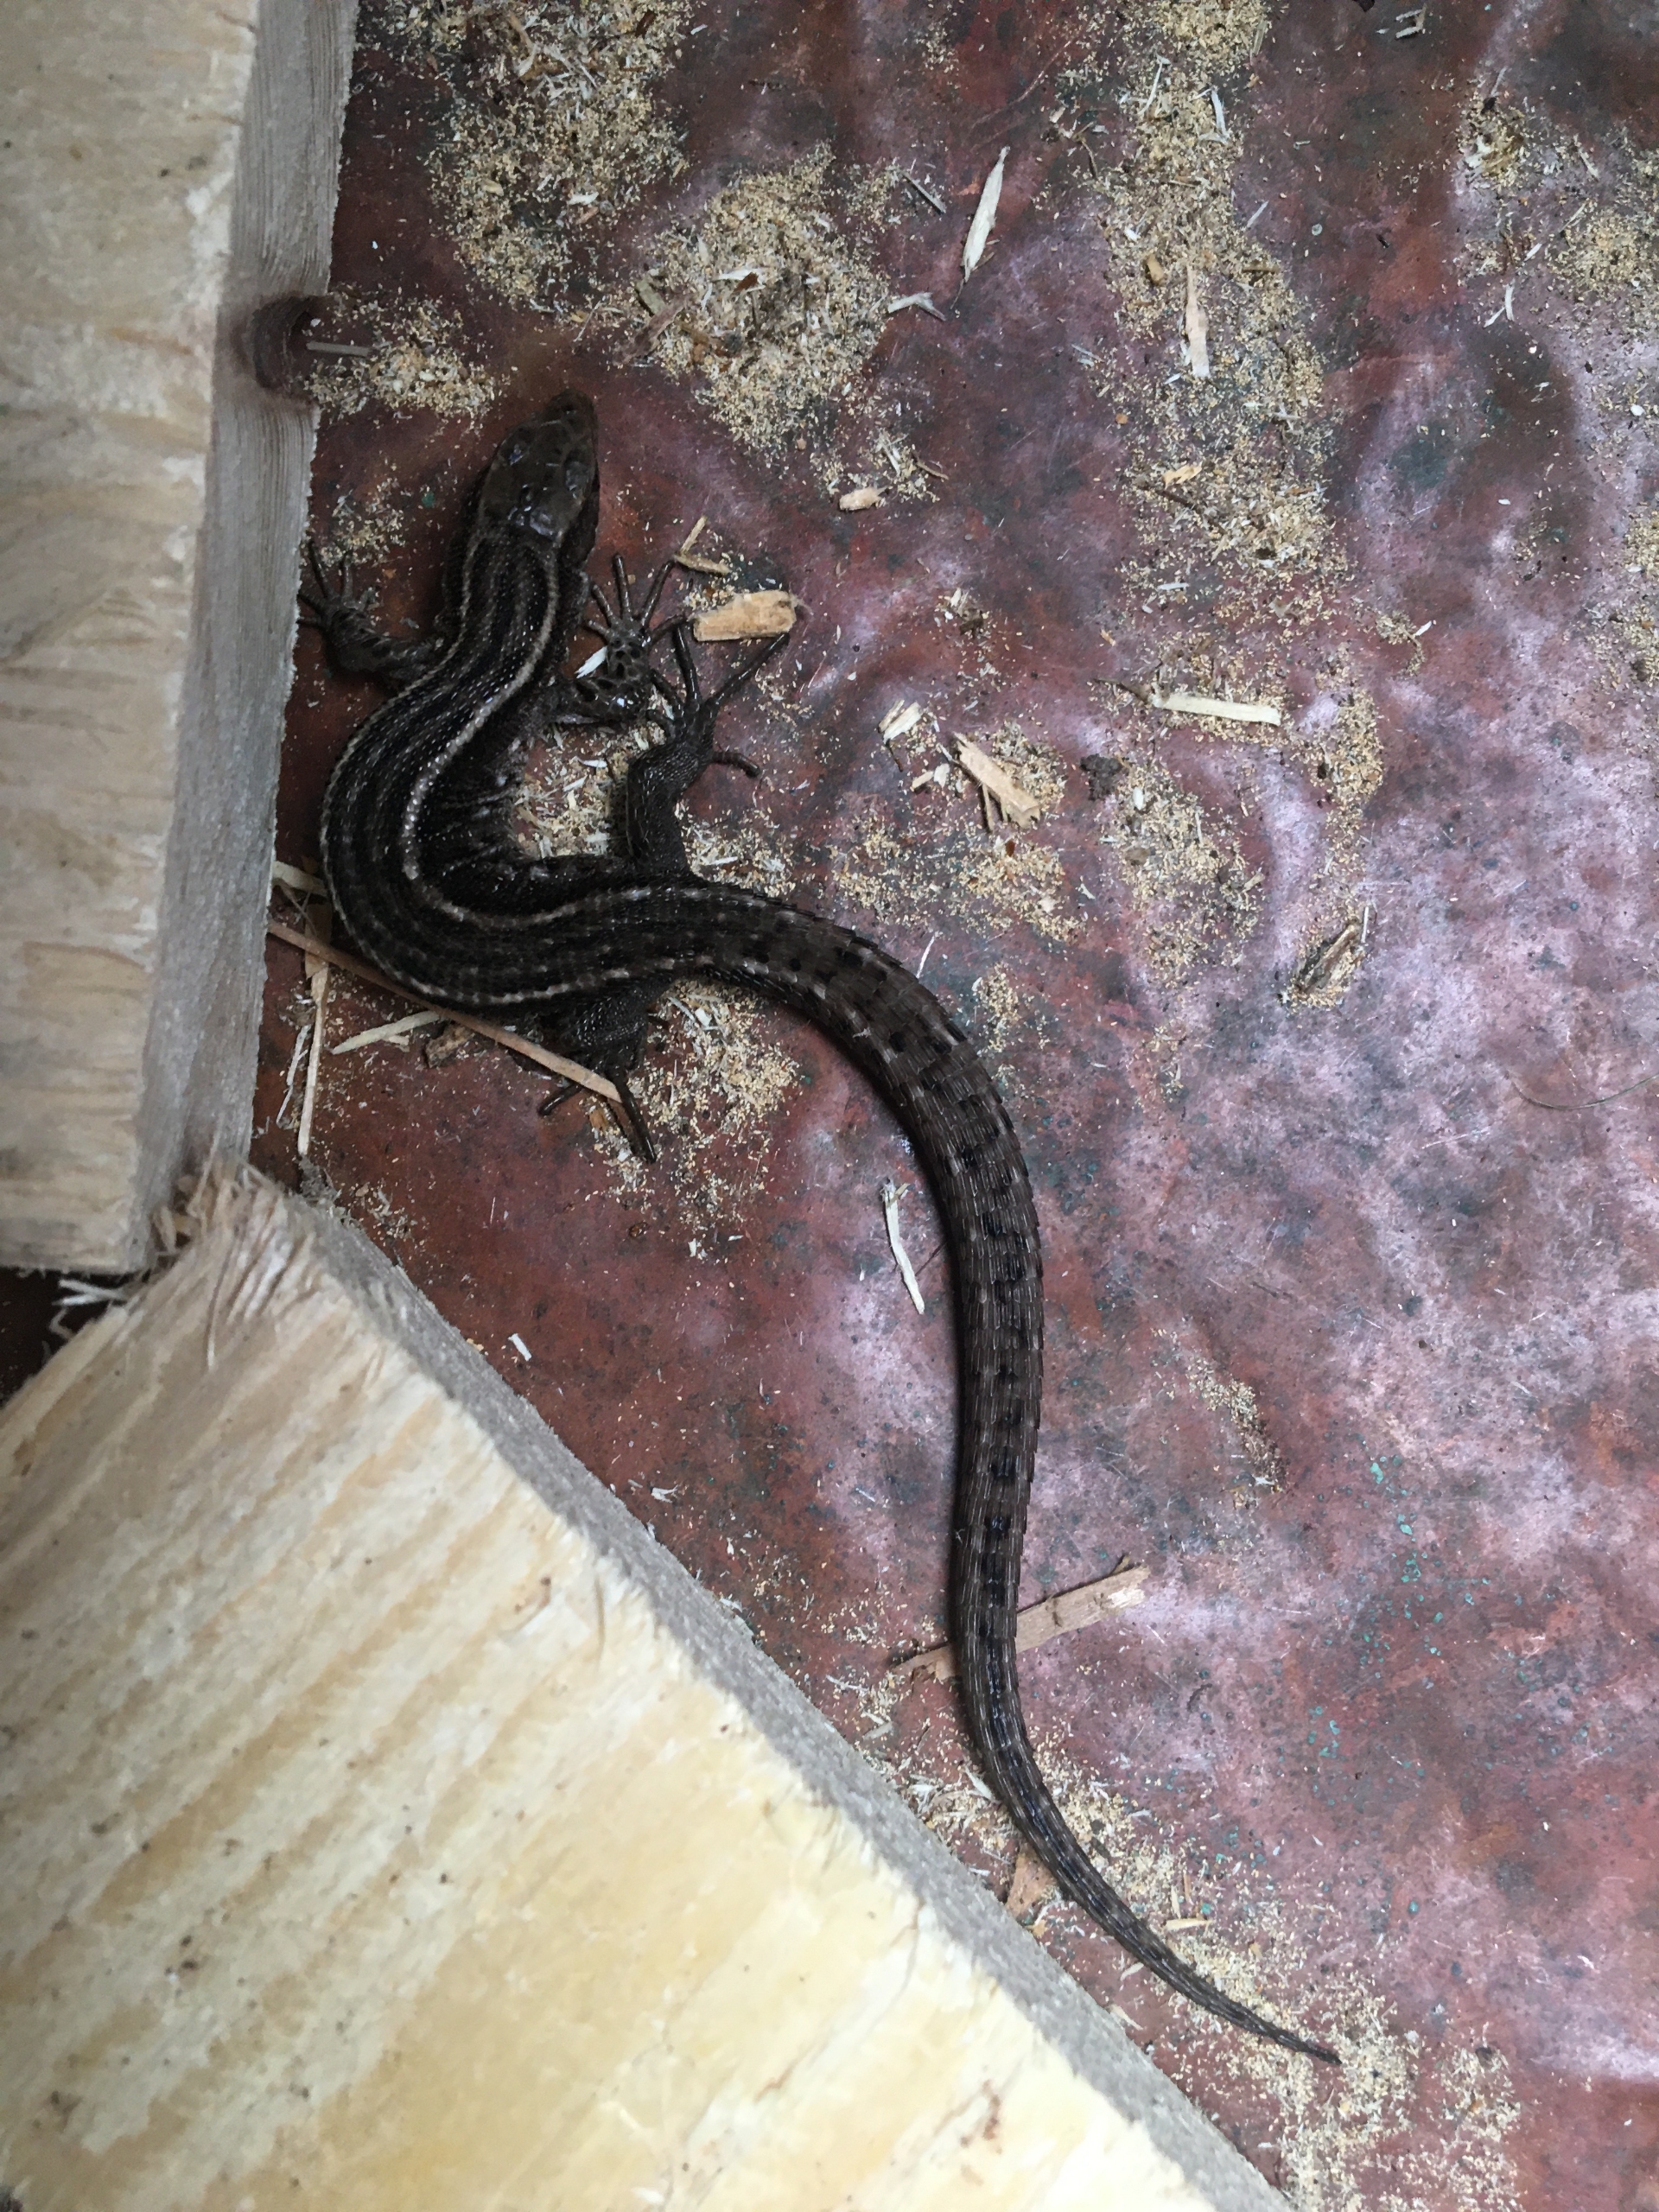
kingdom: Animalia
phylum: Chordata
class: Squamata
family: Lacertidae
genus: Zootoca
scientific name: Zootoca vivipara
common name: Skovfirben
